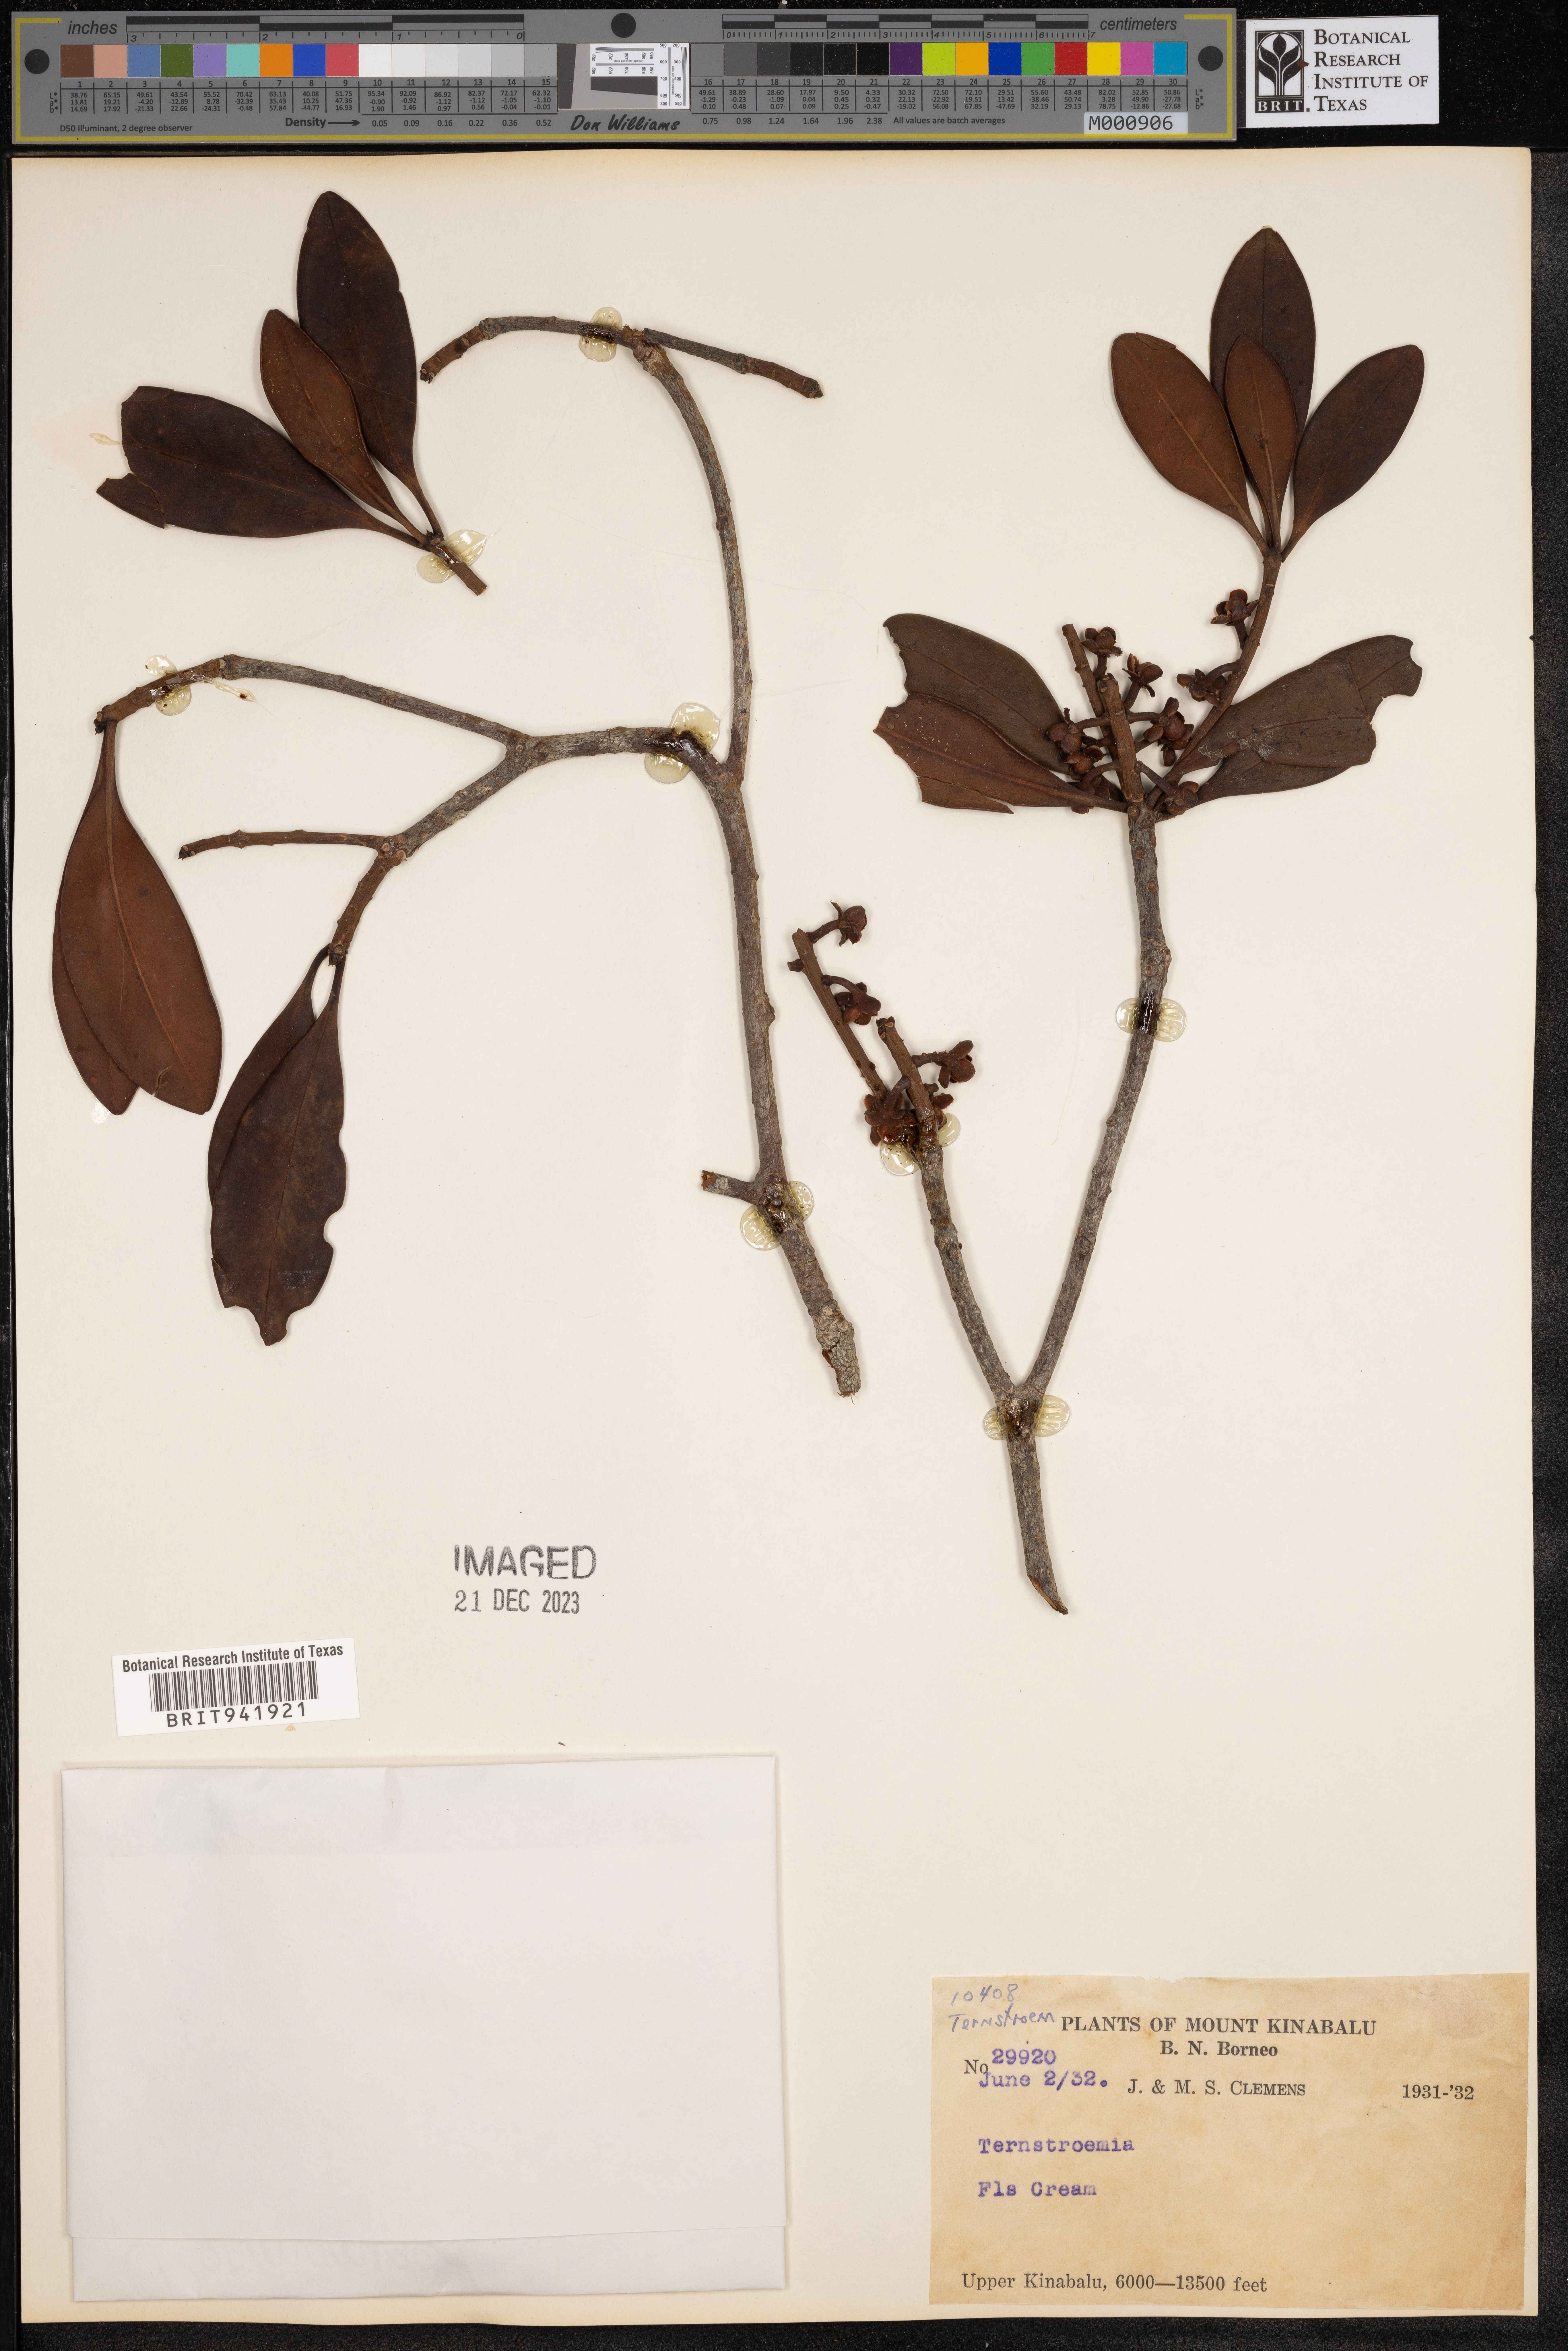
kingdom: Plantae
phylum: Tracheophyta
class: Magnoliopsida
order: Ericales
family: Theaceae
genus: Terustroemia
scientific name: Terustroemia
